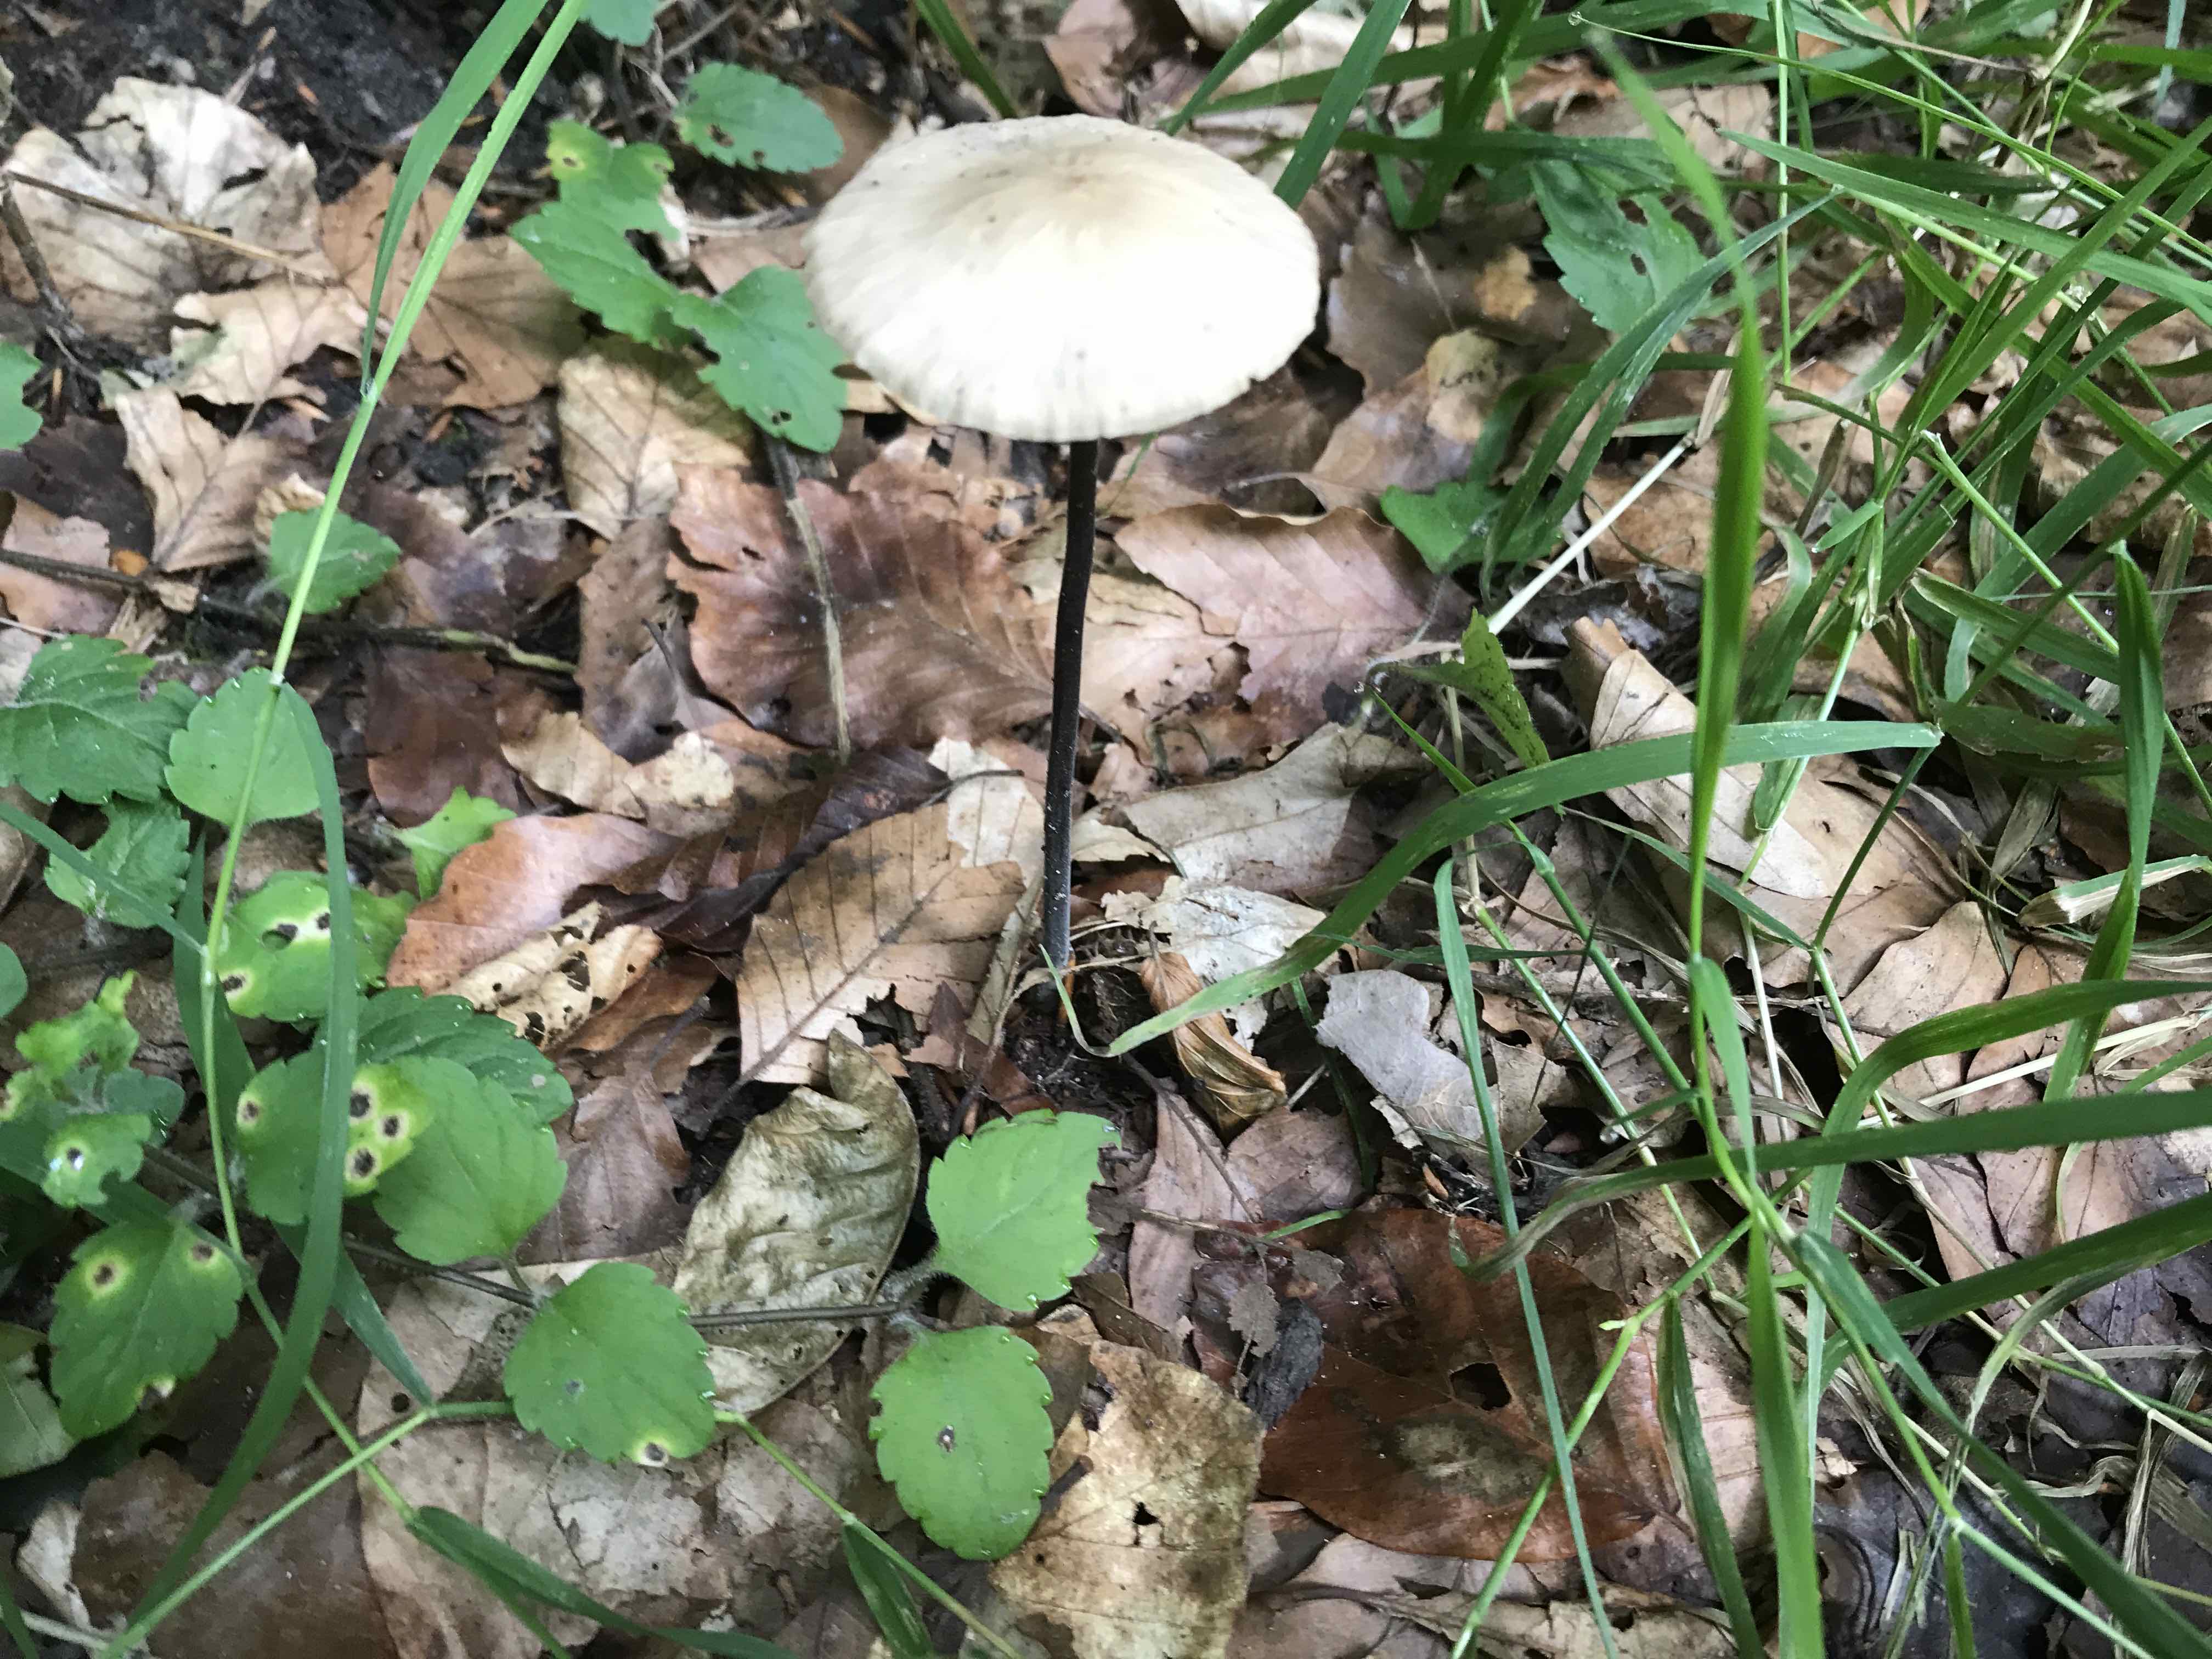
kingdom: Fungi
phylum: Basidiomycota
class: Agaricomycetes
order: Agaricales
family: Omphalotaceae
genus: Mycetinis
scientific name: Mycetinis alliaceus
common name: stor løghat
